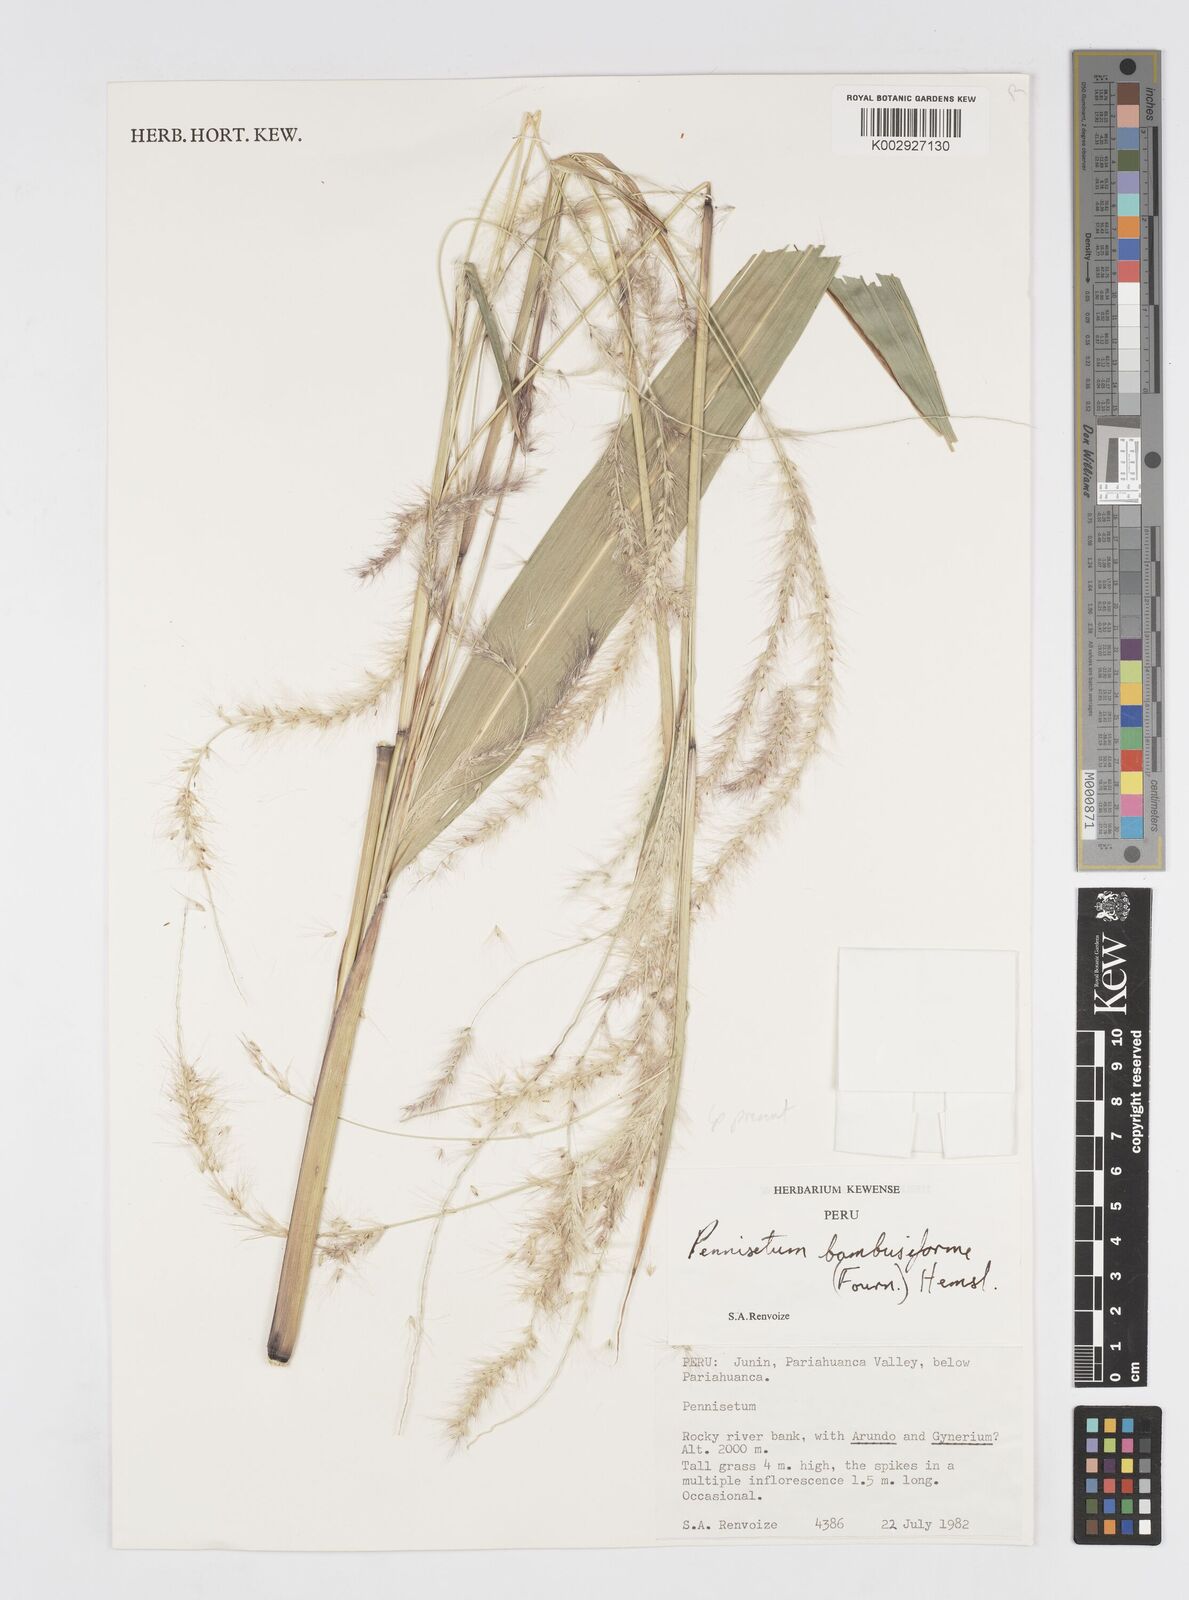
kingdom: Plantae
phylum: Tracheophyta
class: Liliopsida
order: Poales
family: Poaceae
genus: Cenchrus
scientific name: Cenchrus tristachyus
